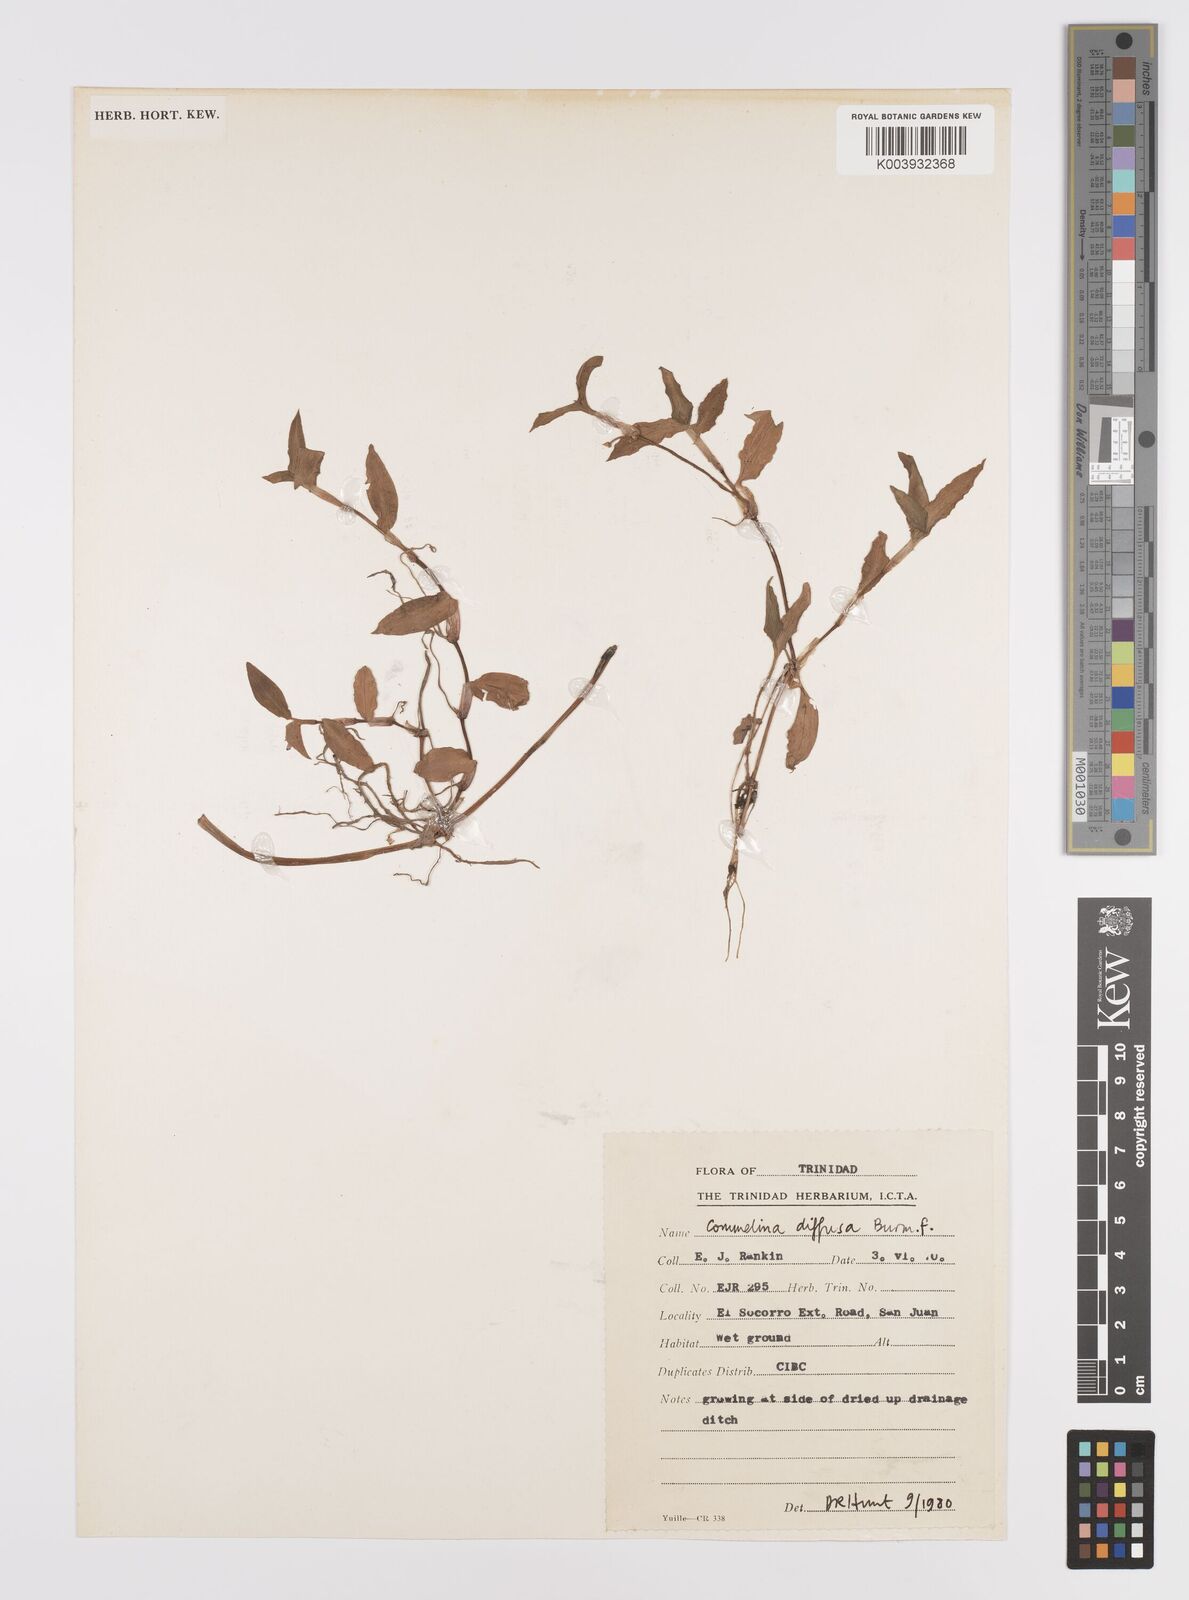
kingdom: Plantae
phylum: Tracheophyta
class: Liliopsida
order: Commelinales
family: Commelinaceae
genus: Commelina
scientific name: Commelina diffusa
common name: Climbing dayflower
